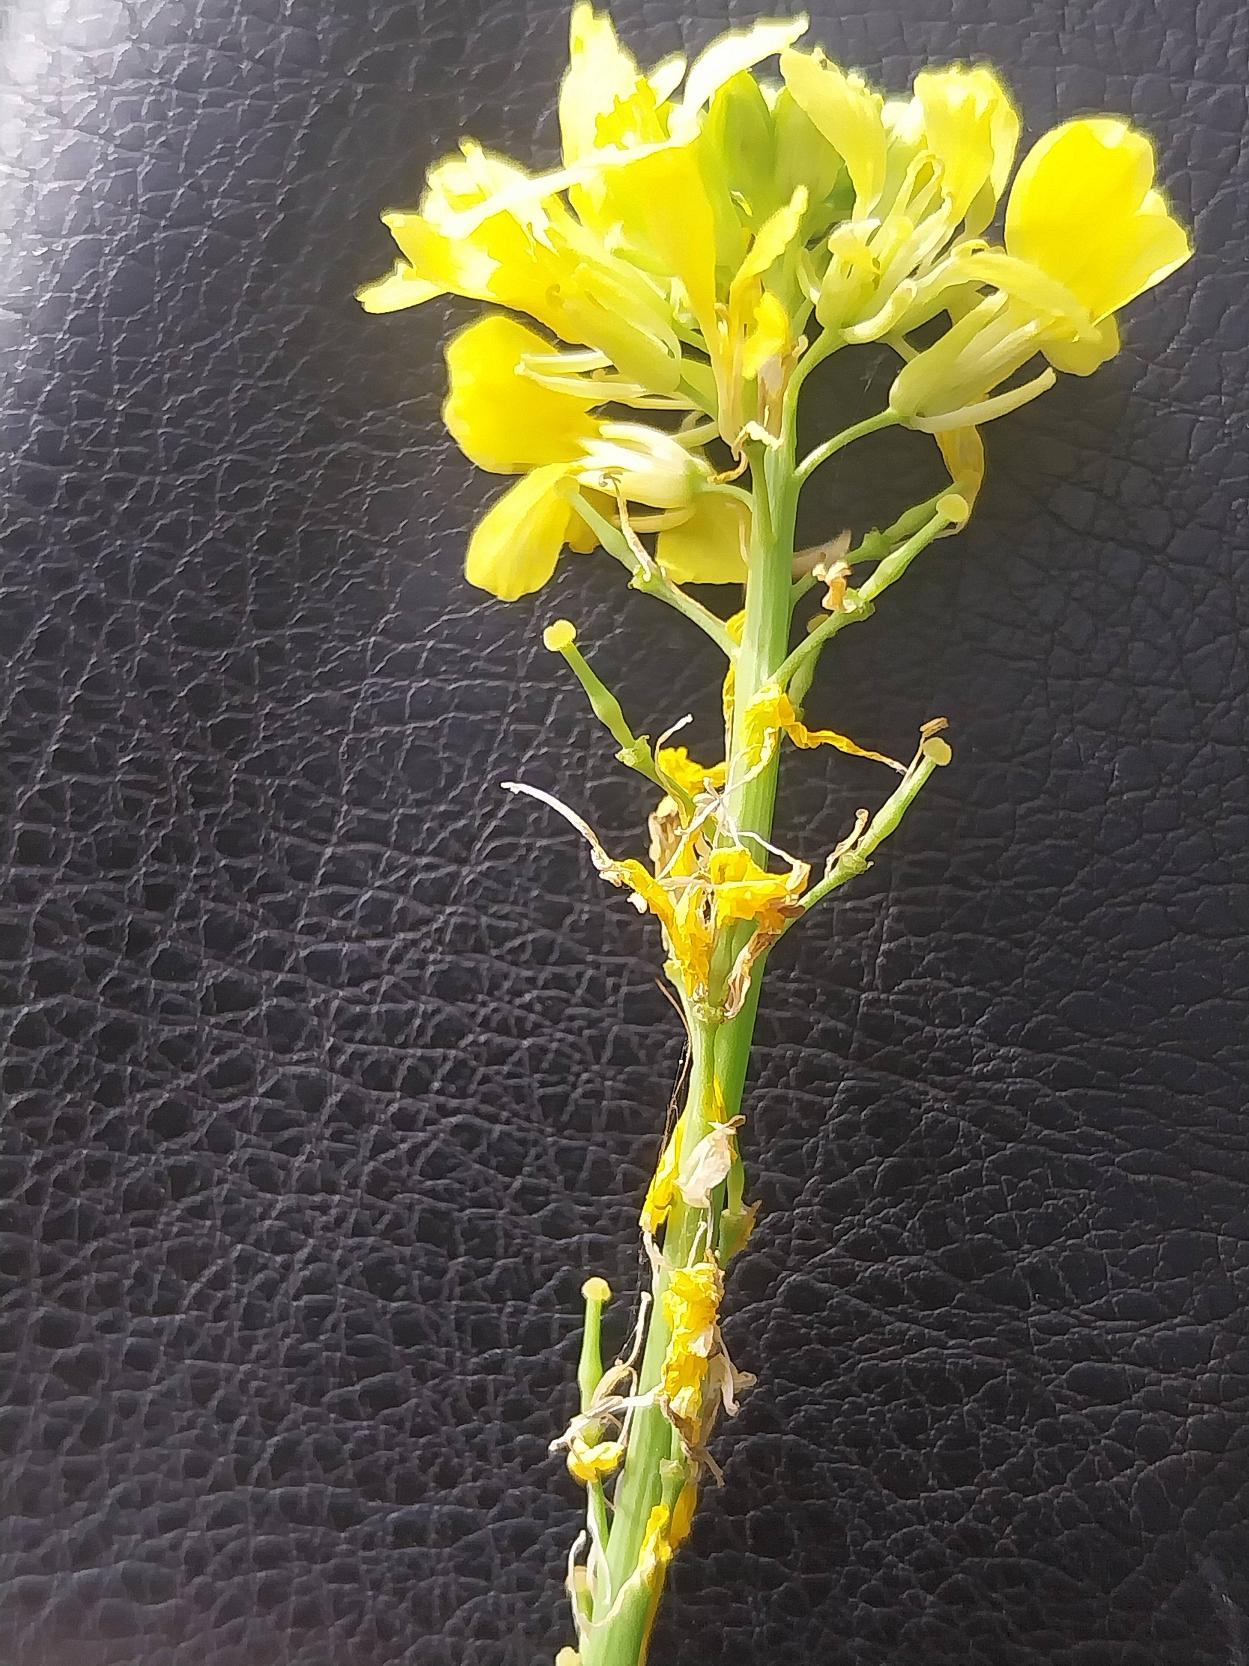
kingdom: Plantae
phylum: Tracheophyta
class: Magnoliopsida
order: Brassicales
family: Brassicaceae
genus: Rapistrum
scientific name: Rapistrum rugosum
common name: Knopskulpe
